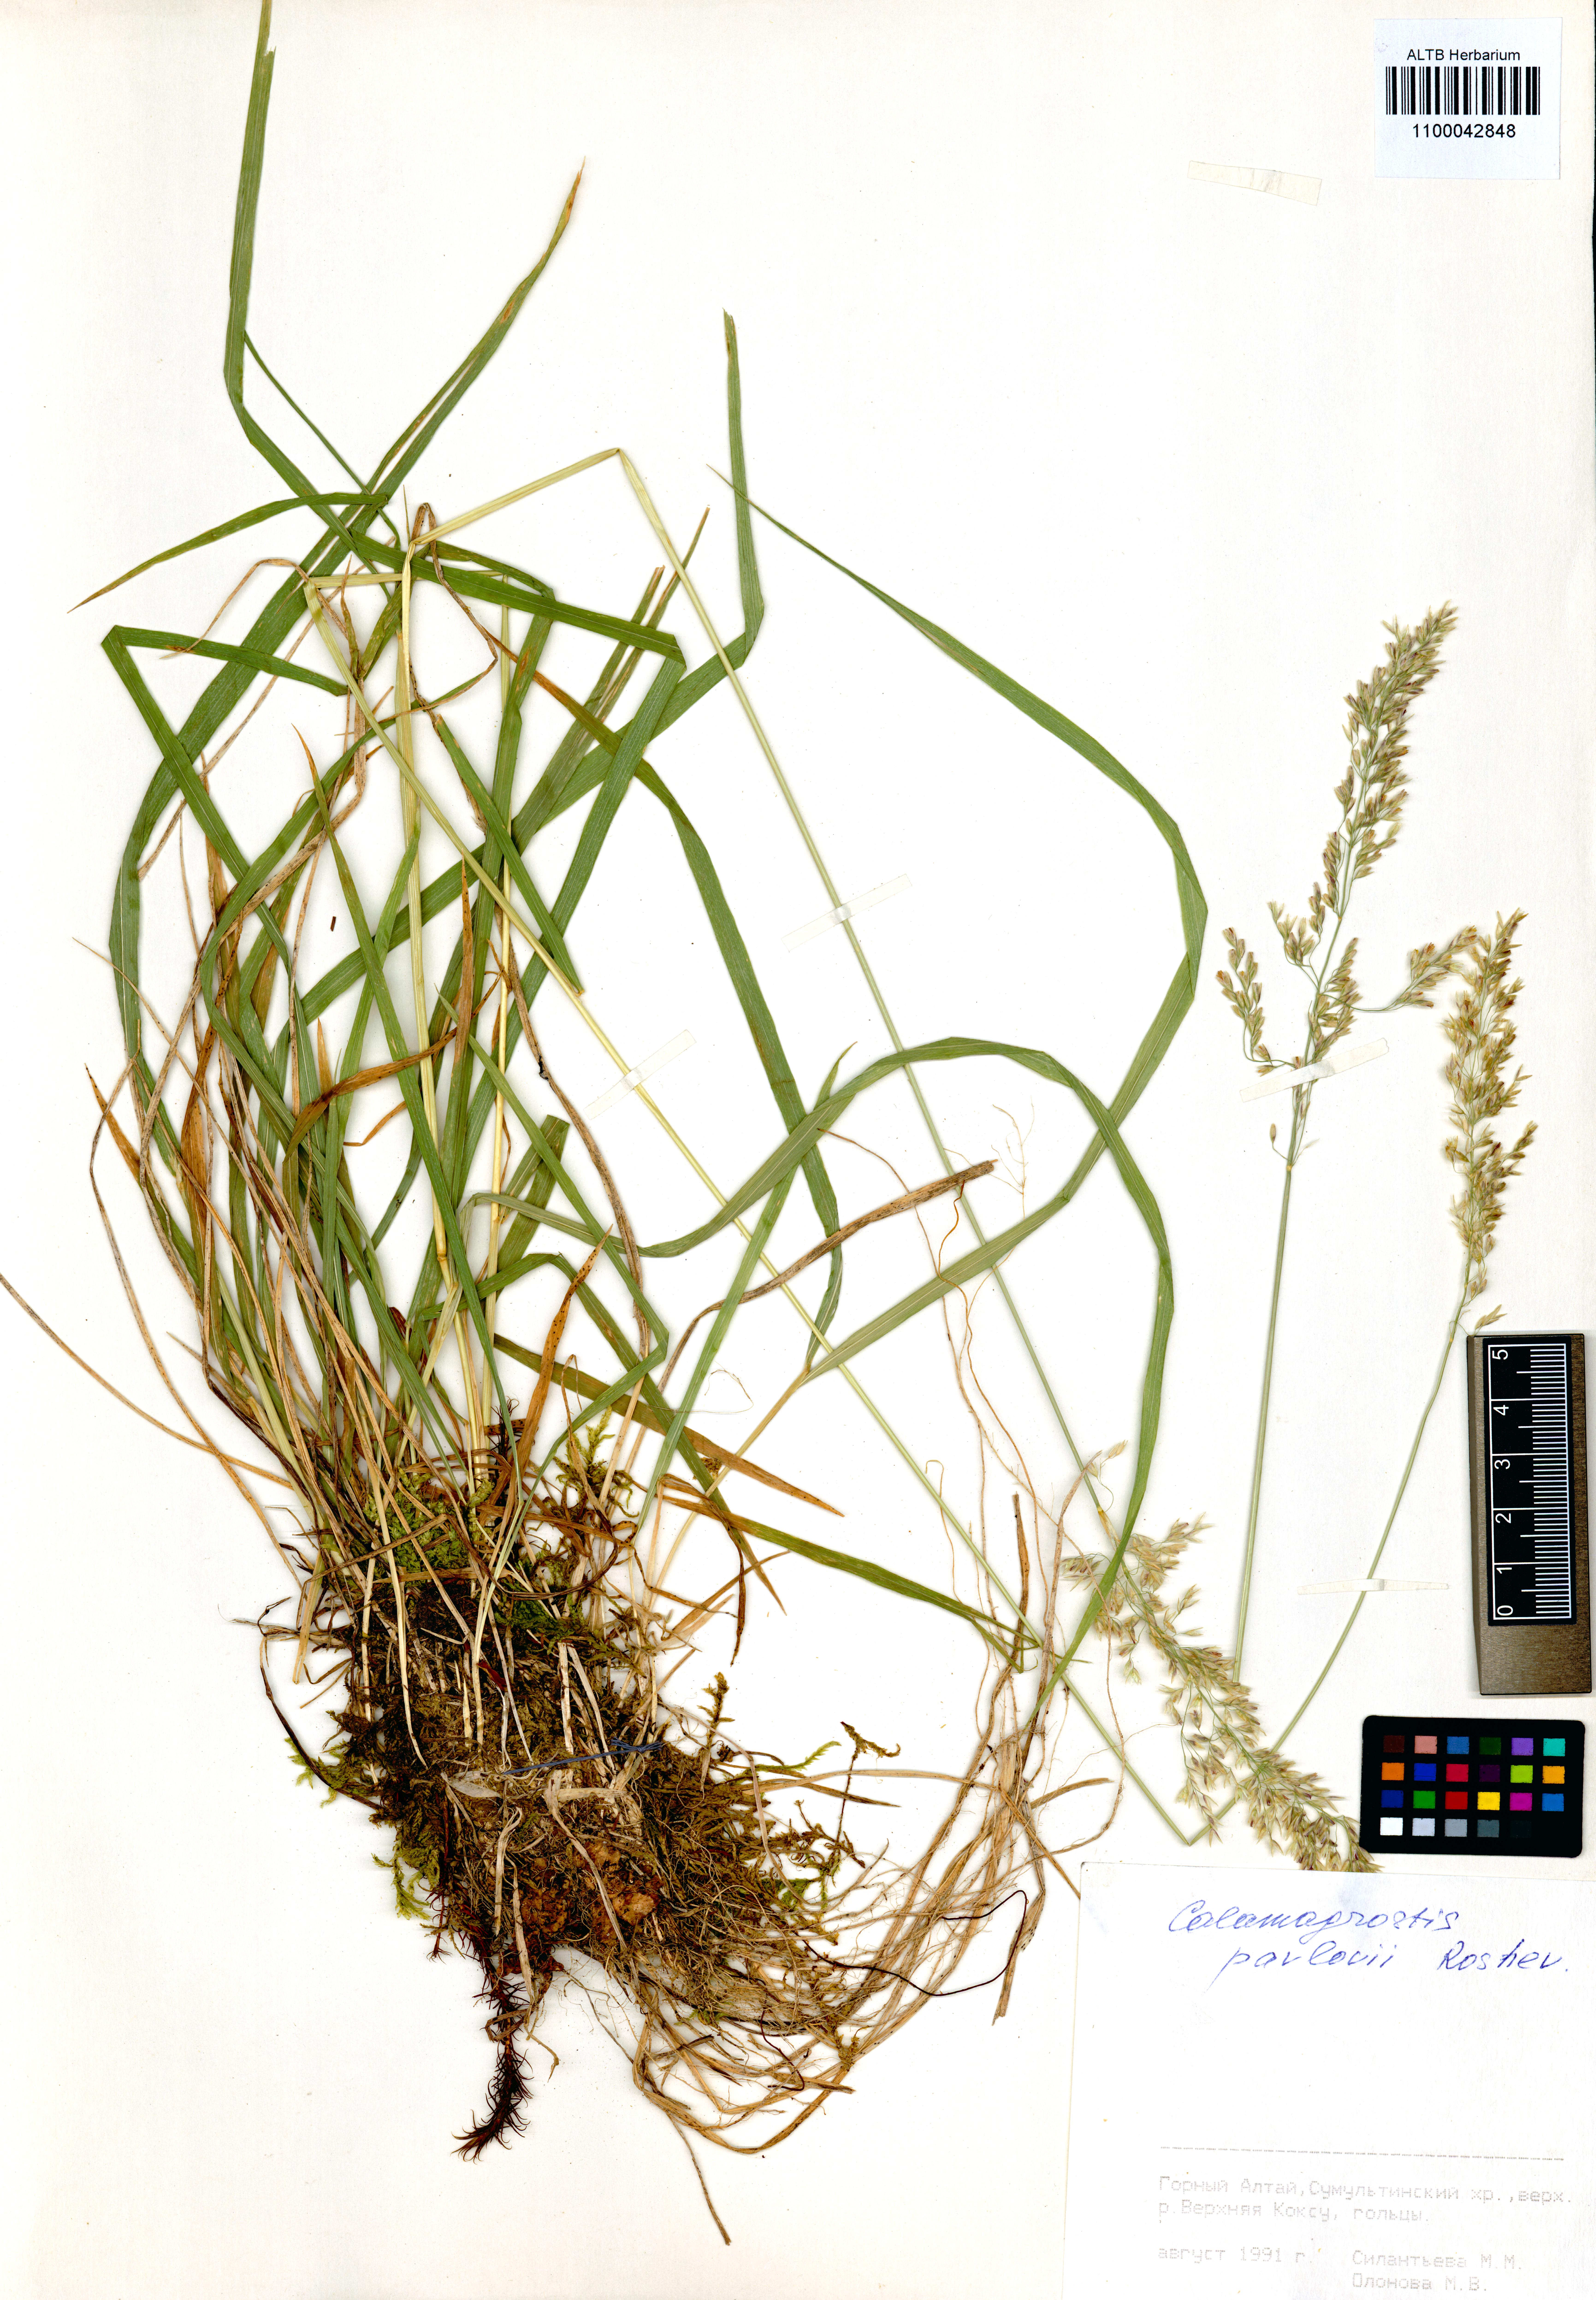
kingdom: Plantae
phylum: Tracheophyta
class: Liliopsida
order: Poales
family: Poaceae
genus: Calamagrostis
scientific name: Calamagrostis pavlovii
